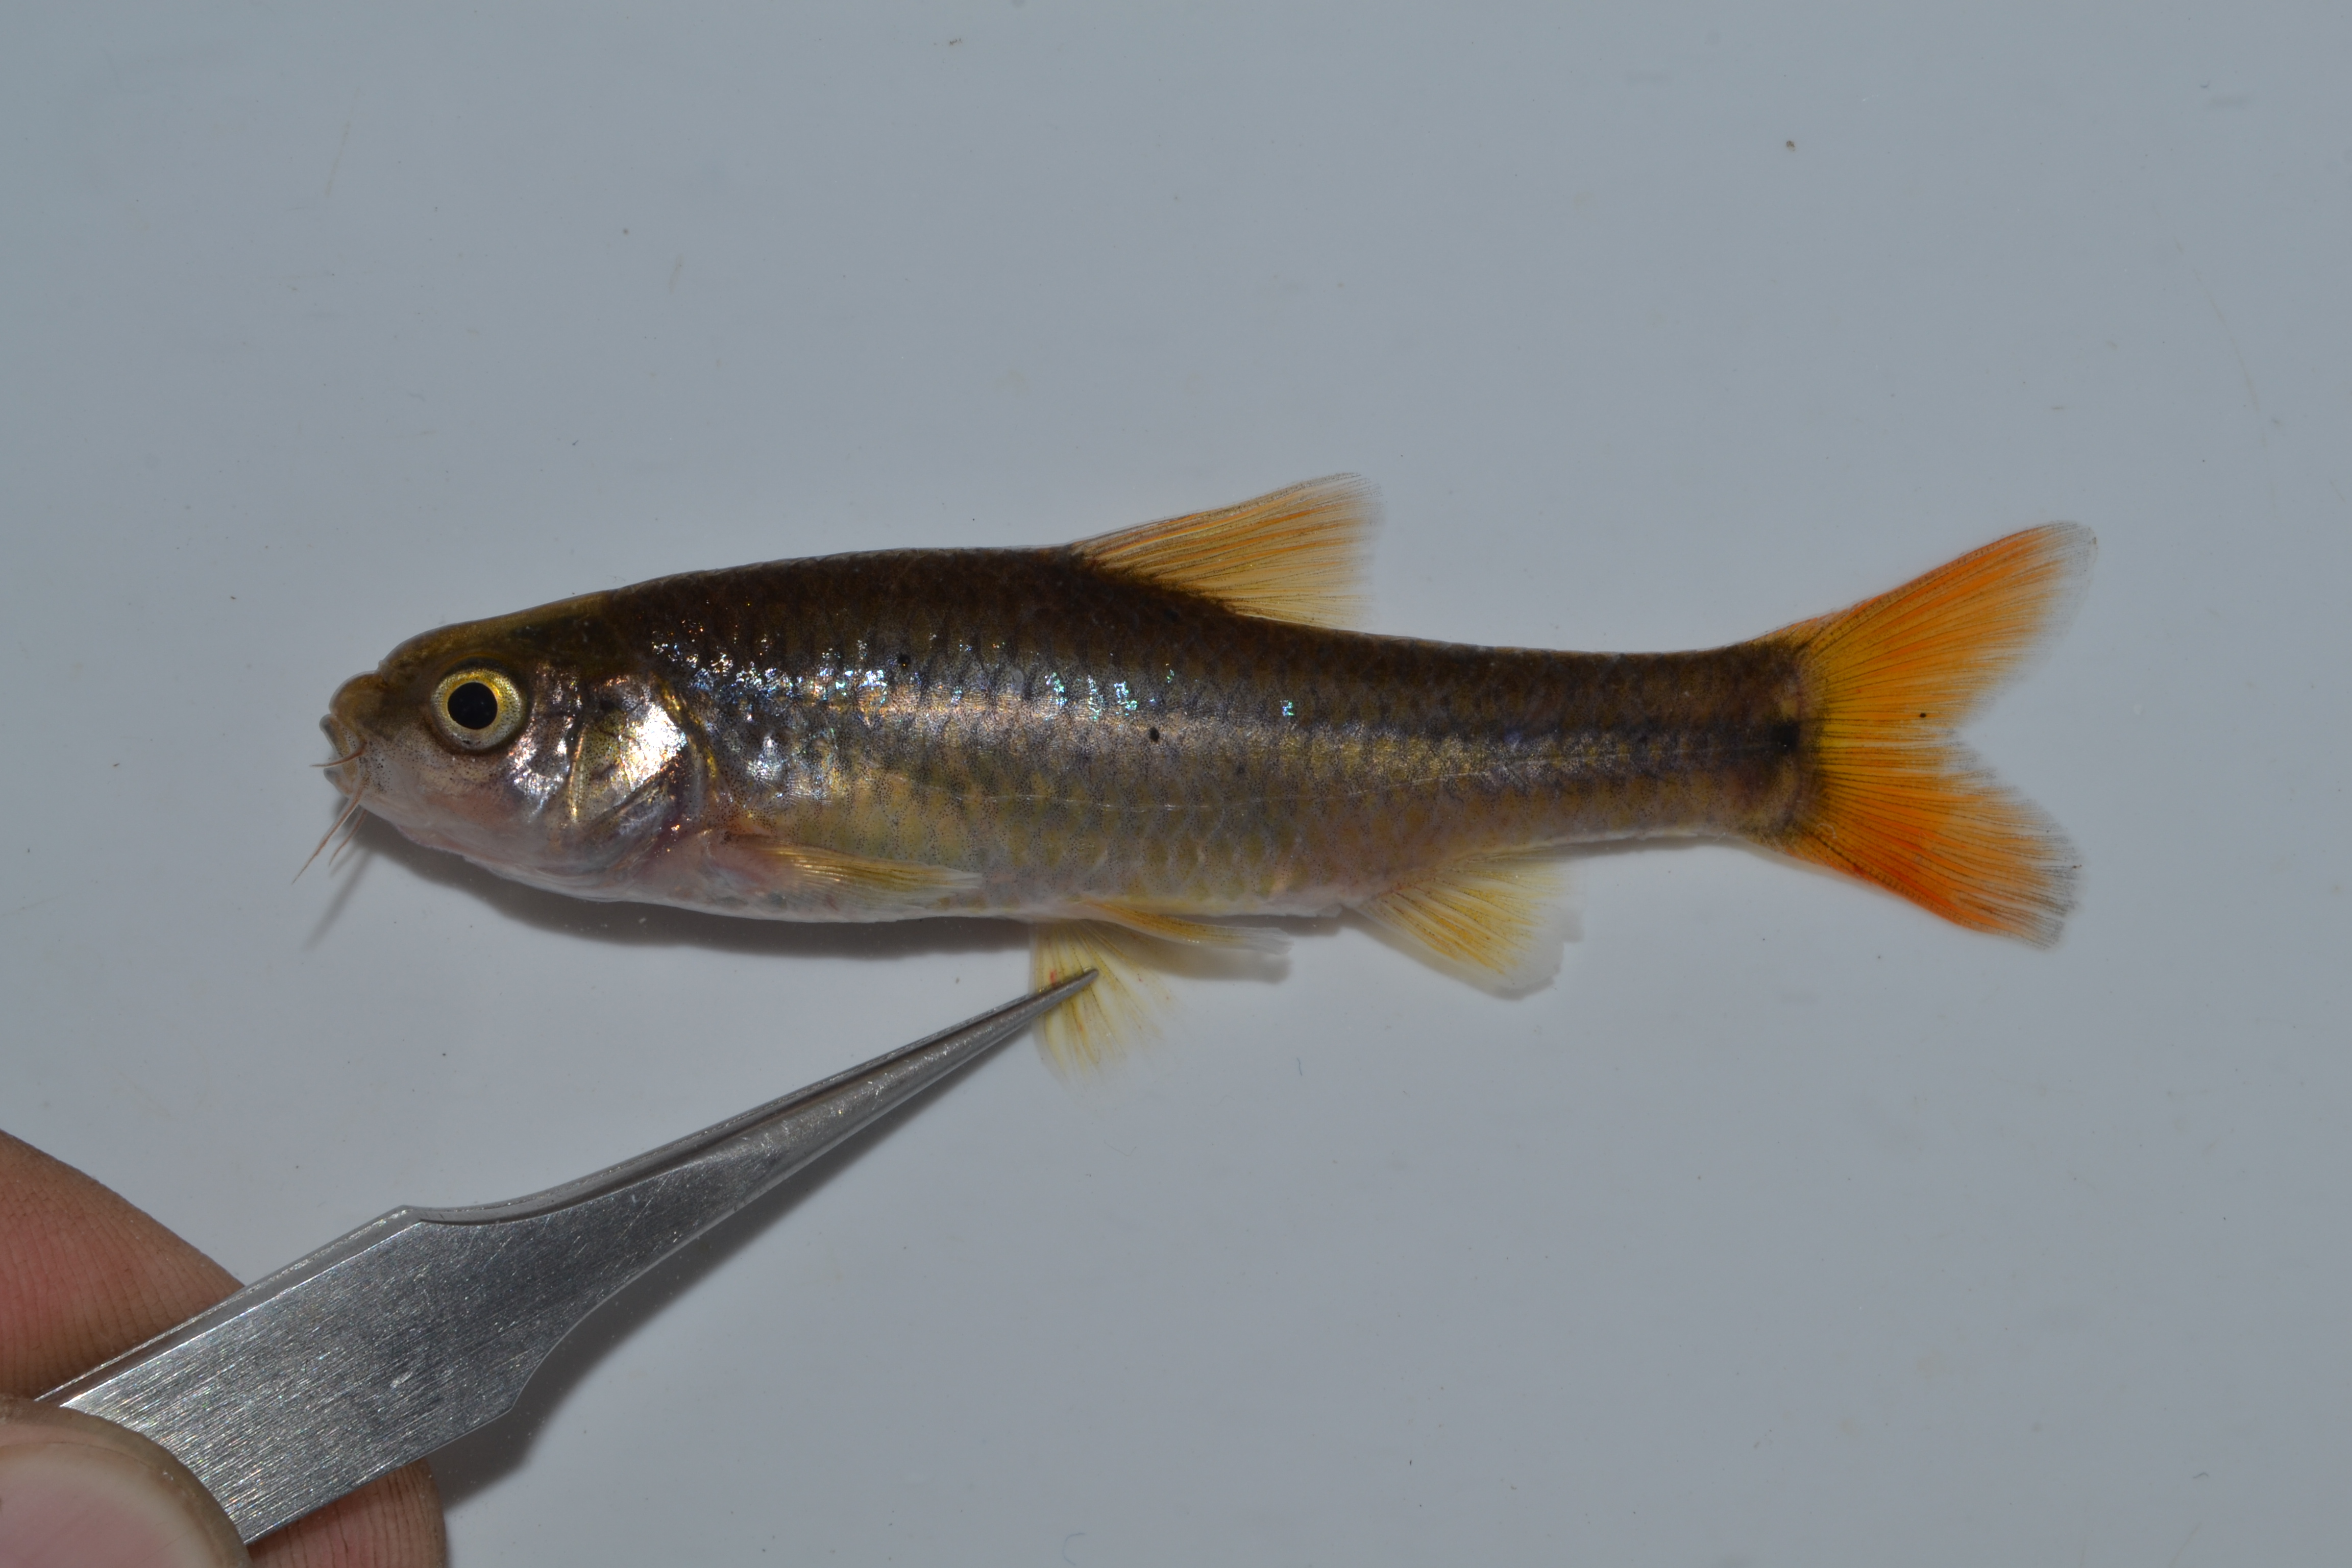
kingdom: Animalia
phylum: Chordata
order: Cypriniformes
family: Cyprinidae
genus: Enteromius
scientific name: Enteromius anoplus
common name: Chubbyhead barb
